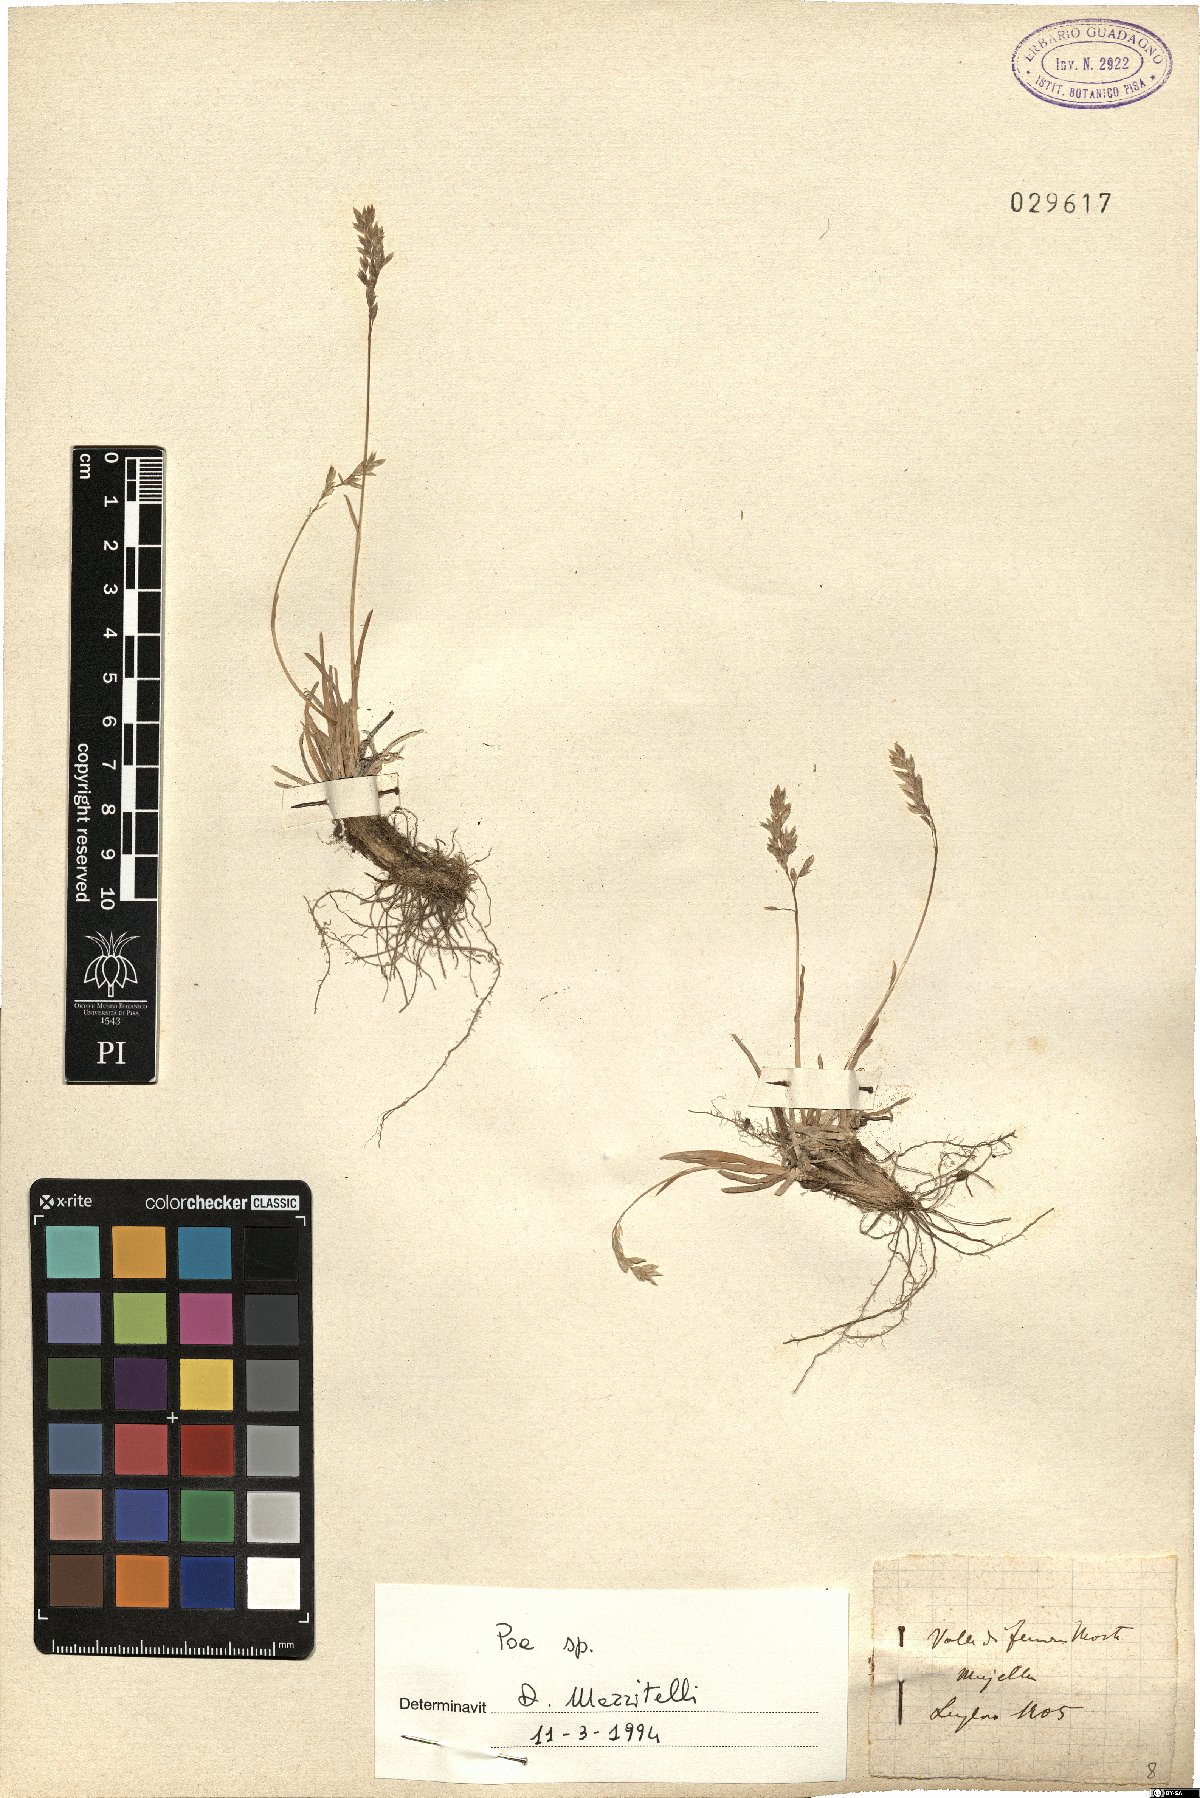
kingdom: Plantae
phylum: Tracheophyta
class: Liliopsida
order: Poales
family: Poaceae
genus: Poa
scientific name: Poa
